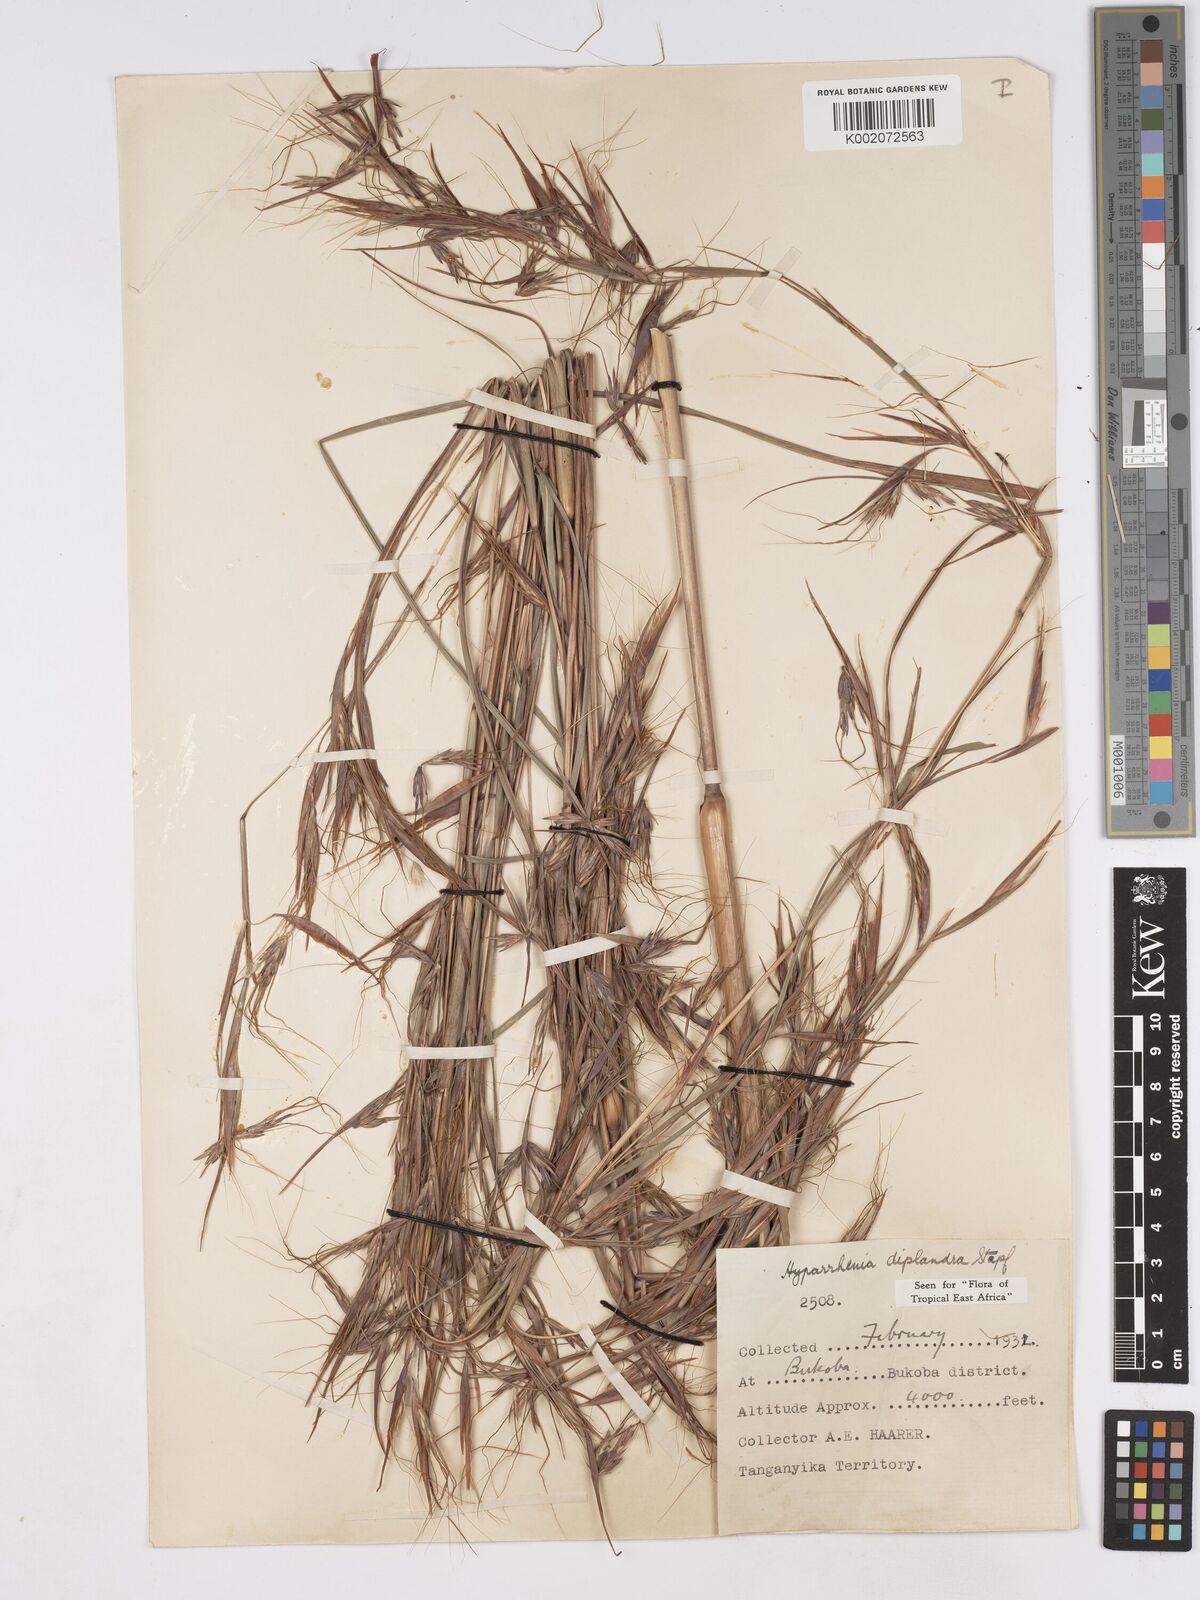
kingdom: Plantae
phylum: Tracheophyta
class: Liliopsida
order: Poales
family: Poaceae
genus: Hyparrhenia
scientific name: Hyparrhenia diplandra
